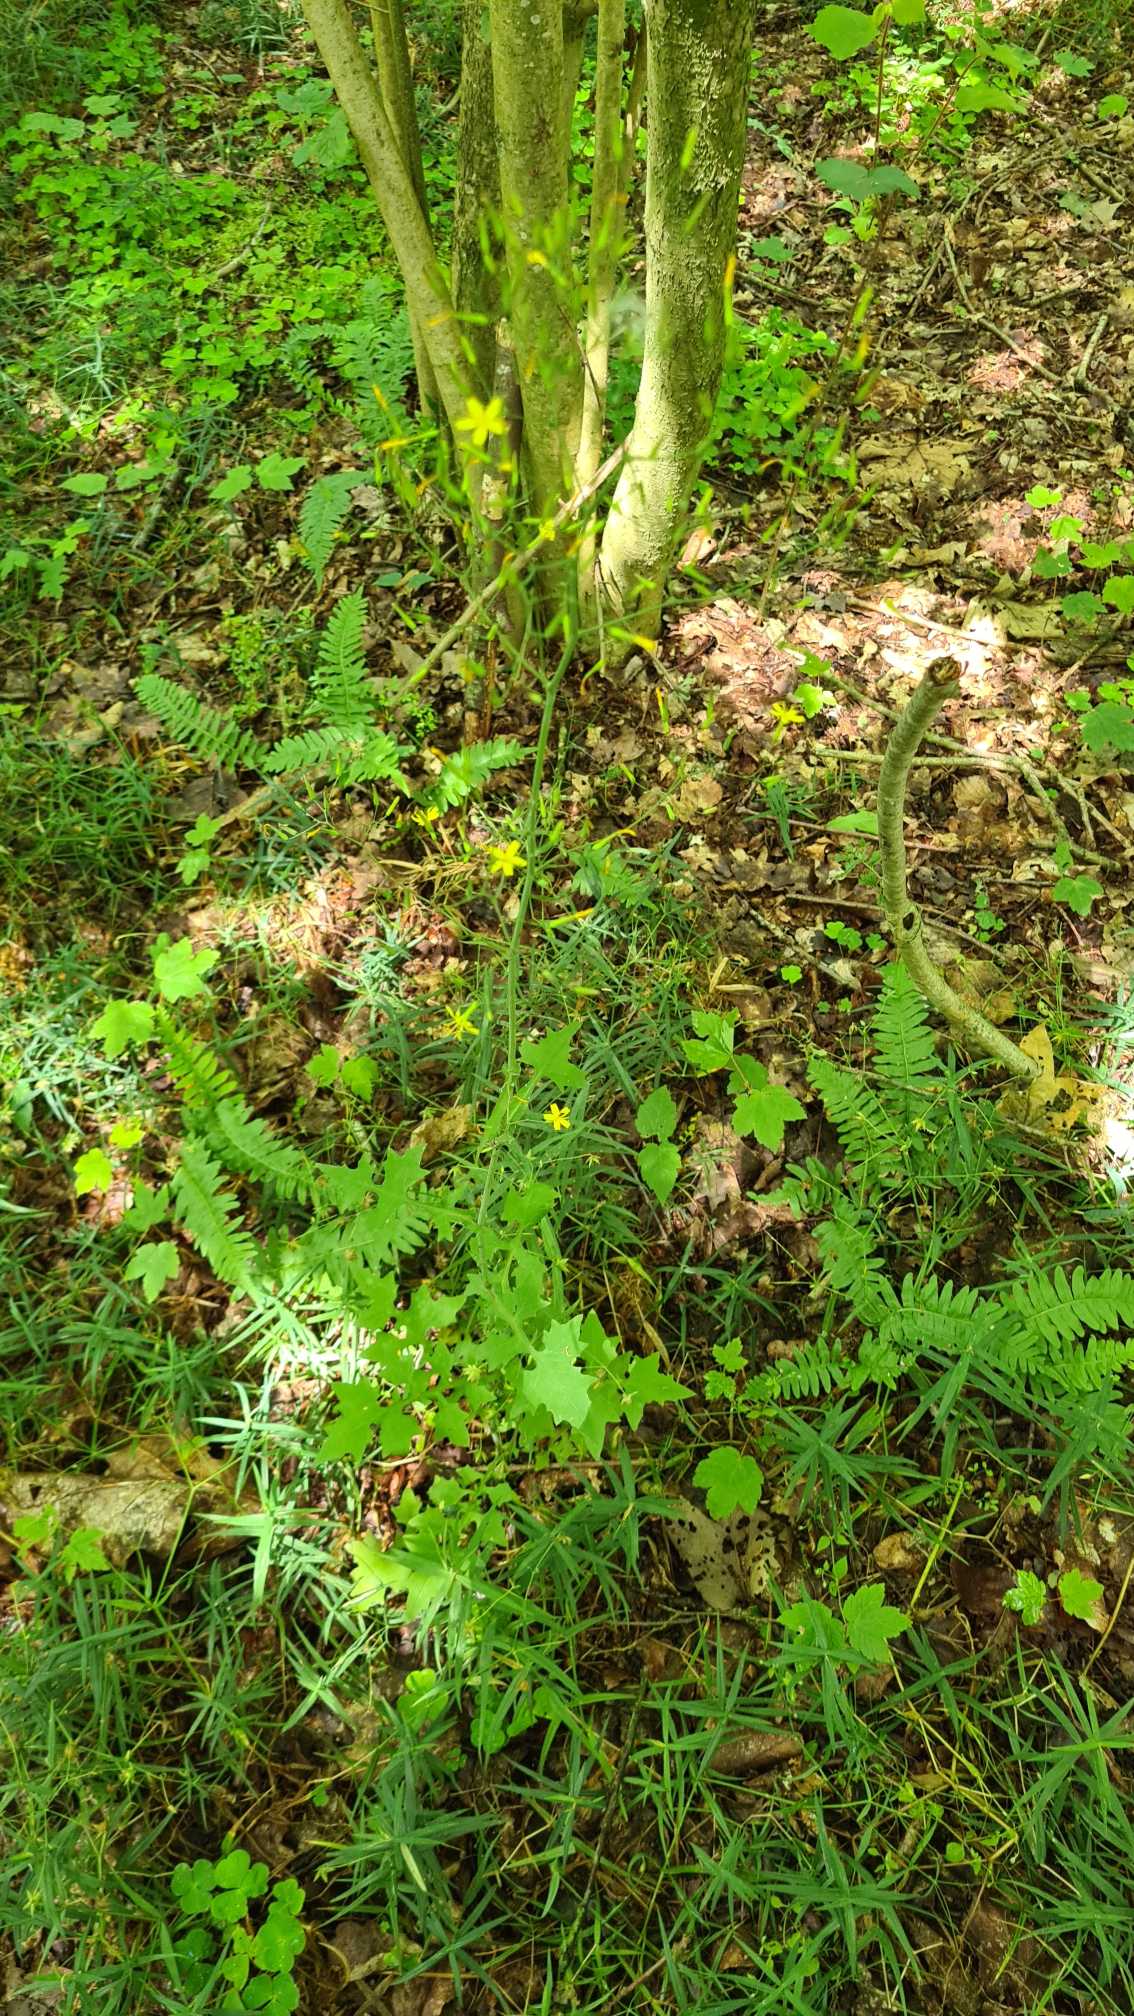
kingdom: Plantae
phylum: Tracheophyta
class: Magnoliopsida
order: Asterales
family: Asteraceae
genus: Mycelis
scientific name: Mycelis muralis
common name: Skov-salat
